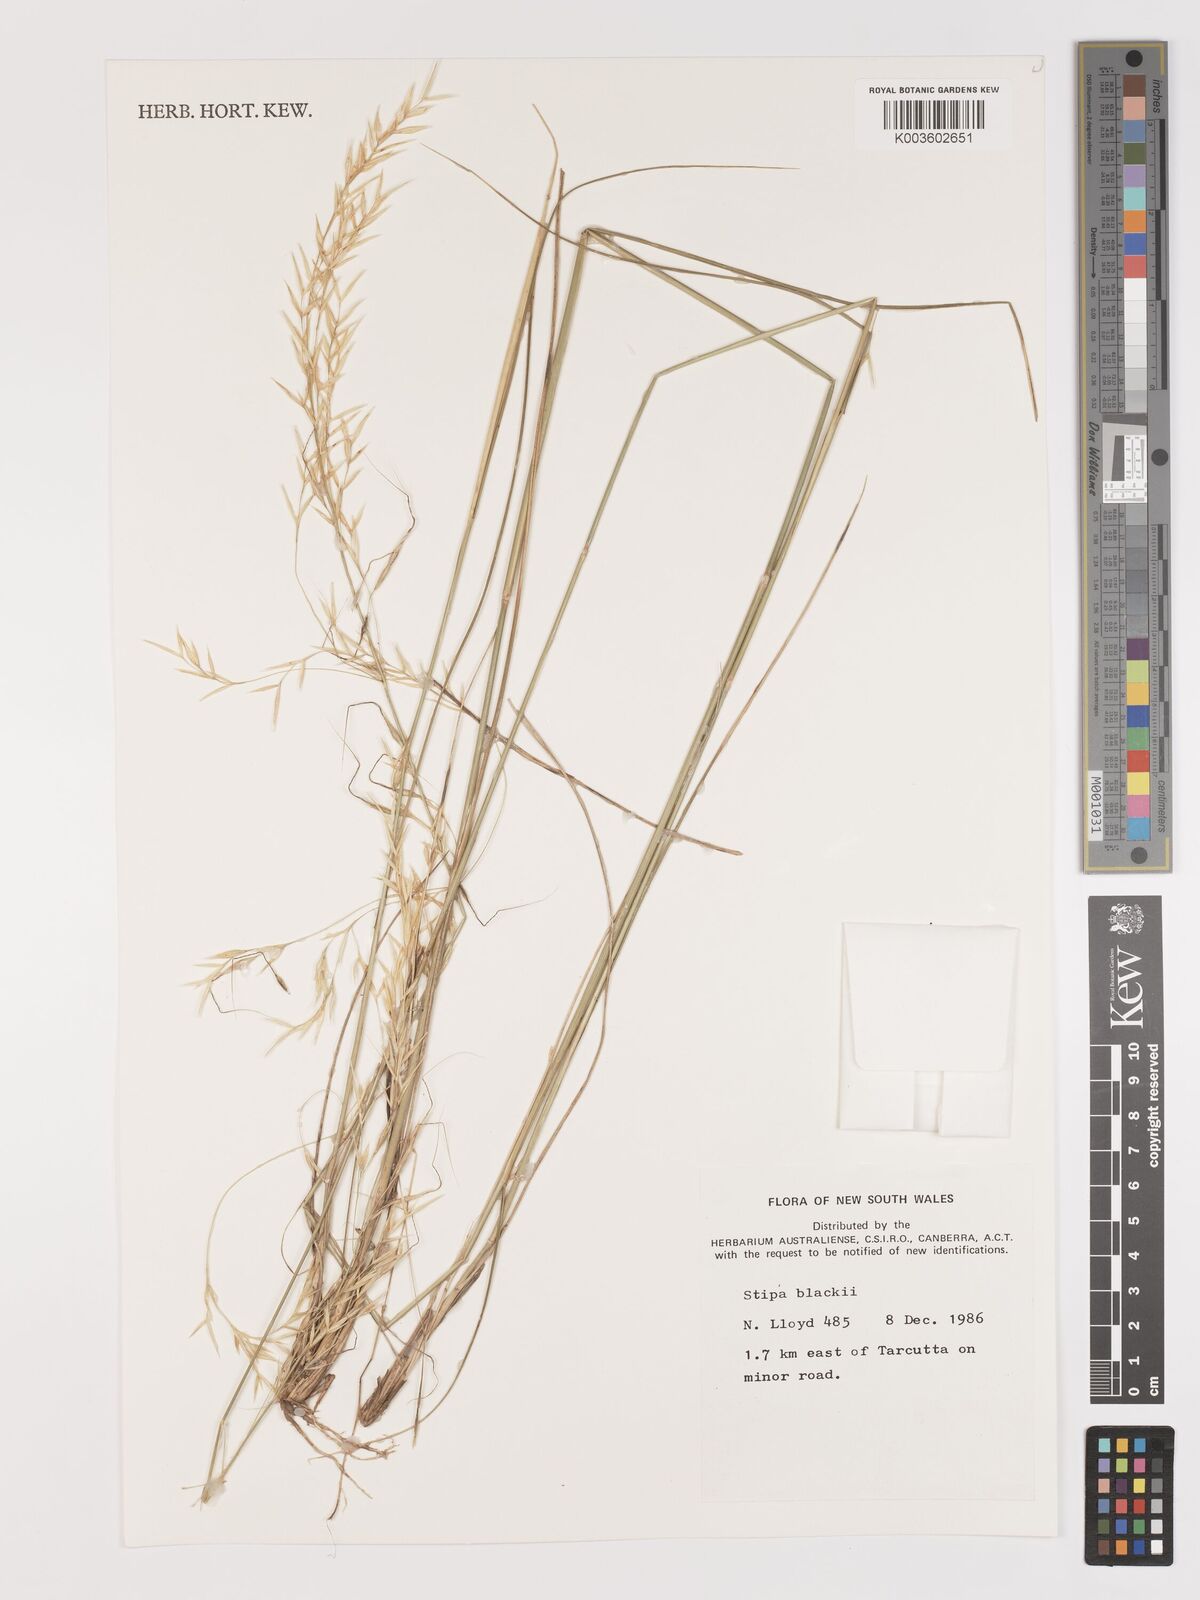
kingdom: Plantae
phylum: Tracheophyta
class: Liliopsida
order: Poales
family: Poaceae
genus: Austrostipa
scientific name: Austrostipa blackii
